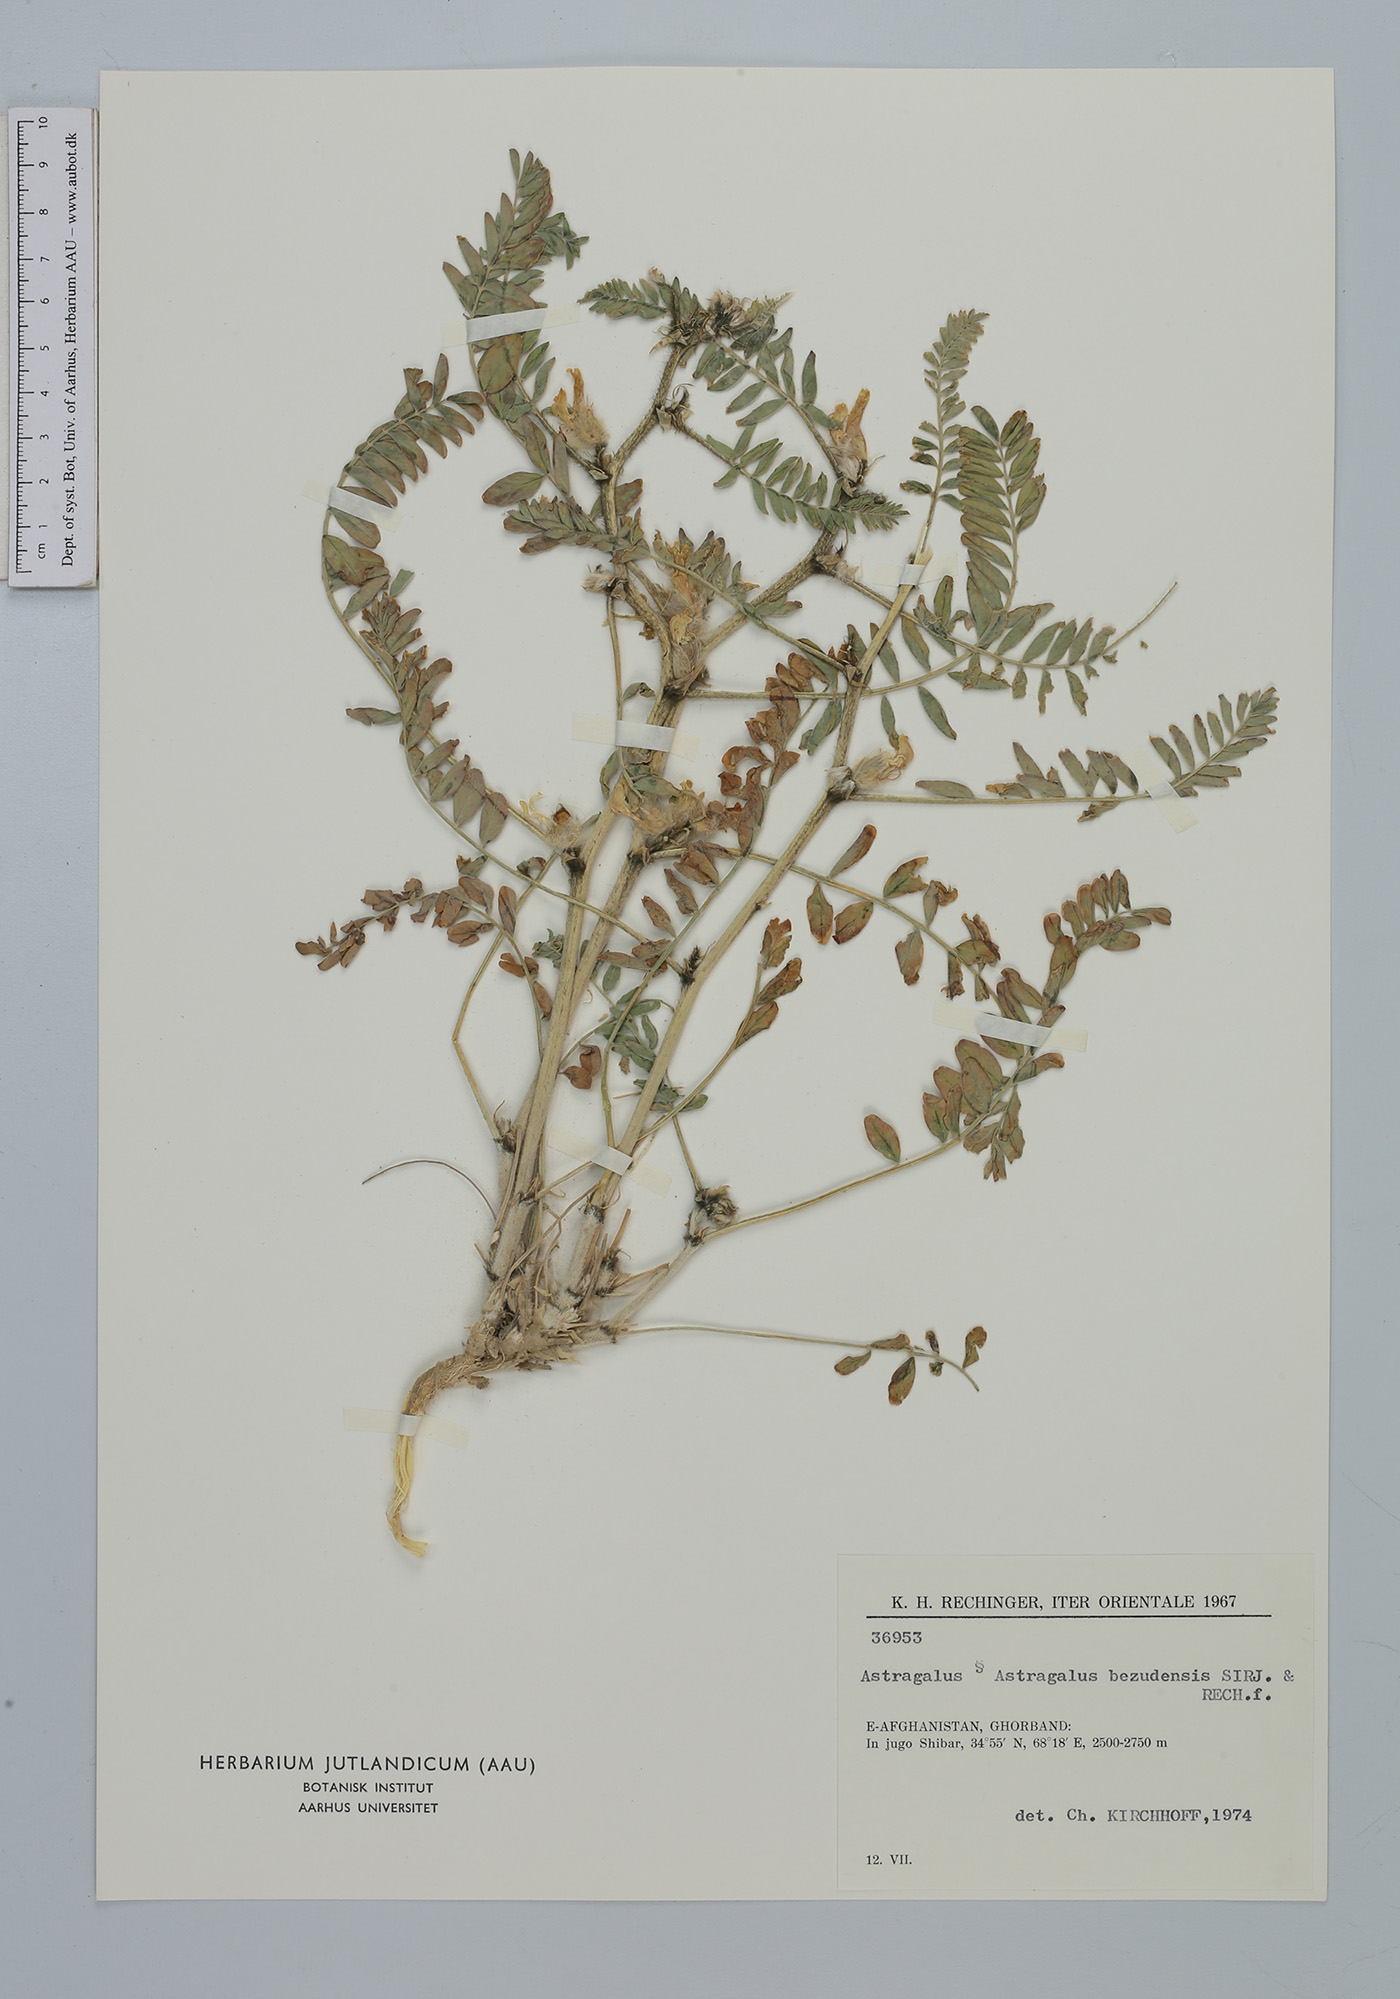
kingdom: Plantae
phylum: Tracheophyta
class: Magnoliopsida
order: Fabales
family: Fabaceae
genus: Astragalus
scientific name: Astragalus bezudensis
